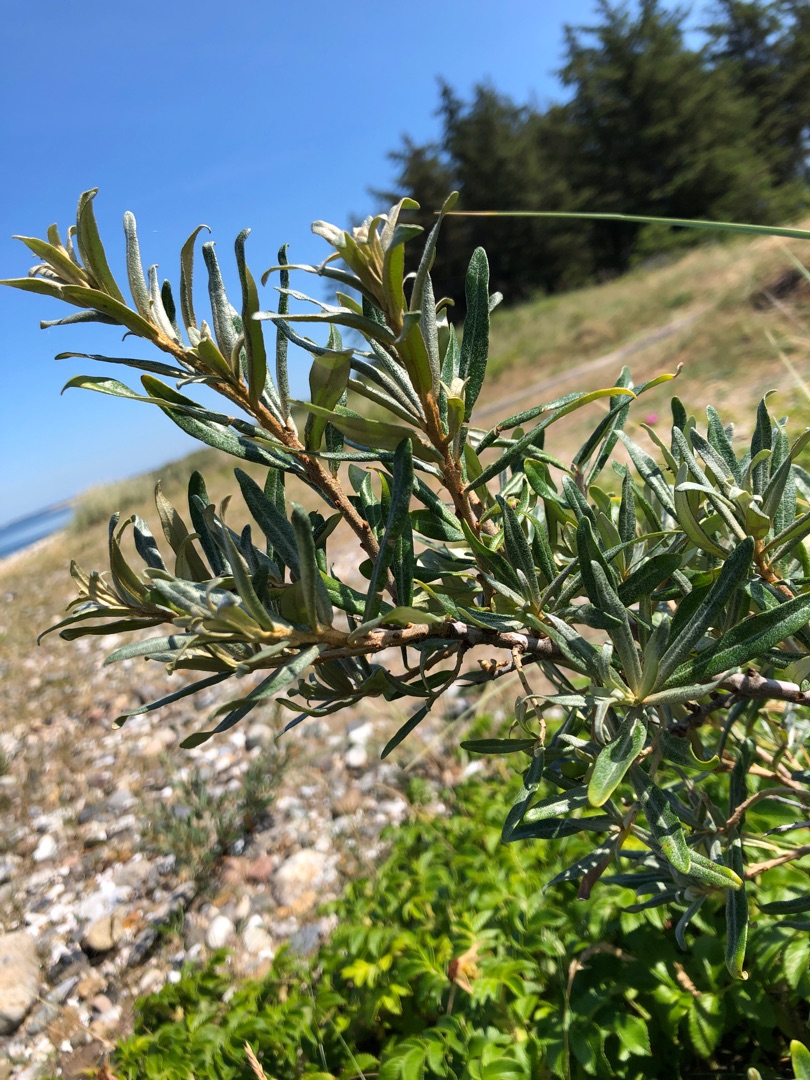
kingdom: Plantae
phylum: Tracheophyta
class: Magnoliopsida
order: Rosales
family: Elaeagnaceae
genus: Hippophae
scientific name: Hippophae rhamnoides
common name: Havtorn
